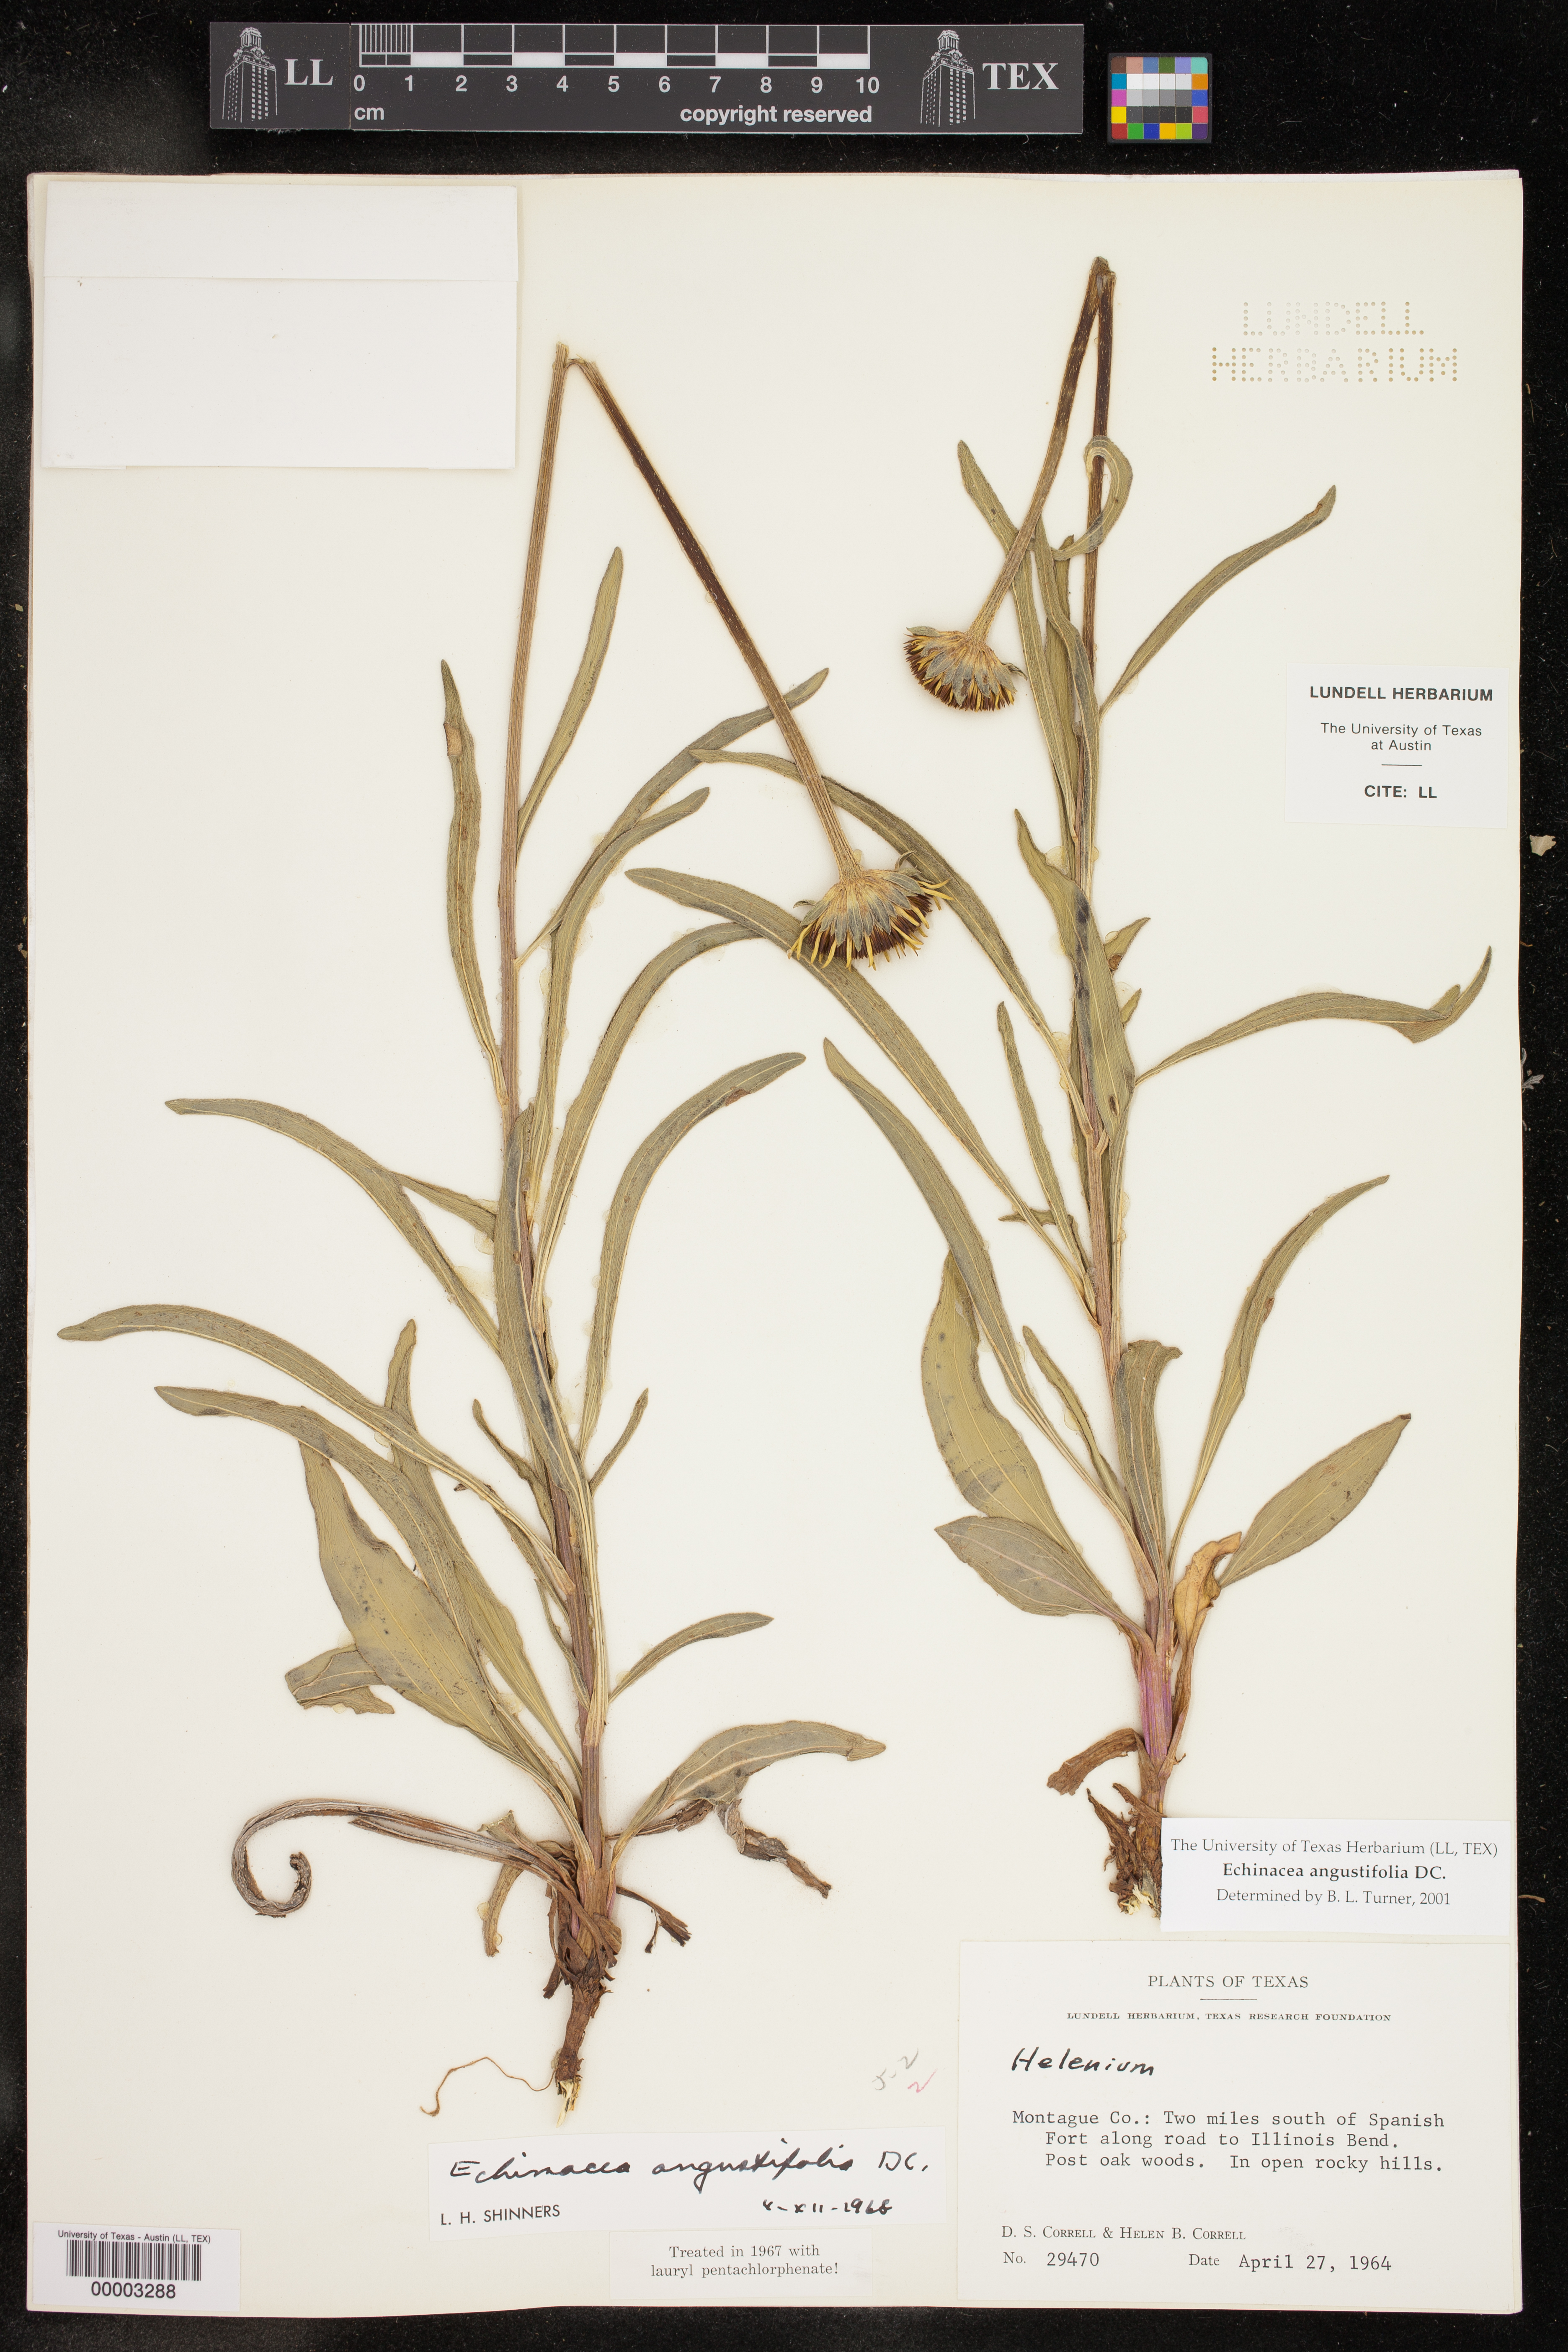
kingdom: Plantae
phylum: Tracheophyta
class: Magnoliopsida
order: Asterales
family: Asteraceae
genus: Echinacea
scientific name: Echinacea angustifolia
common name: Black-sampson echinacea
